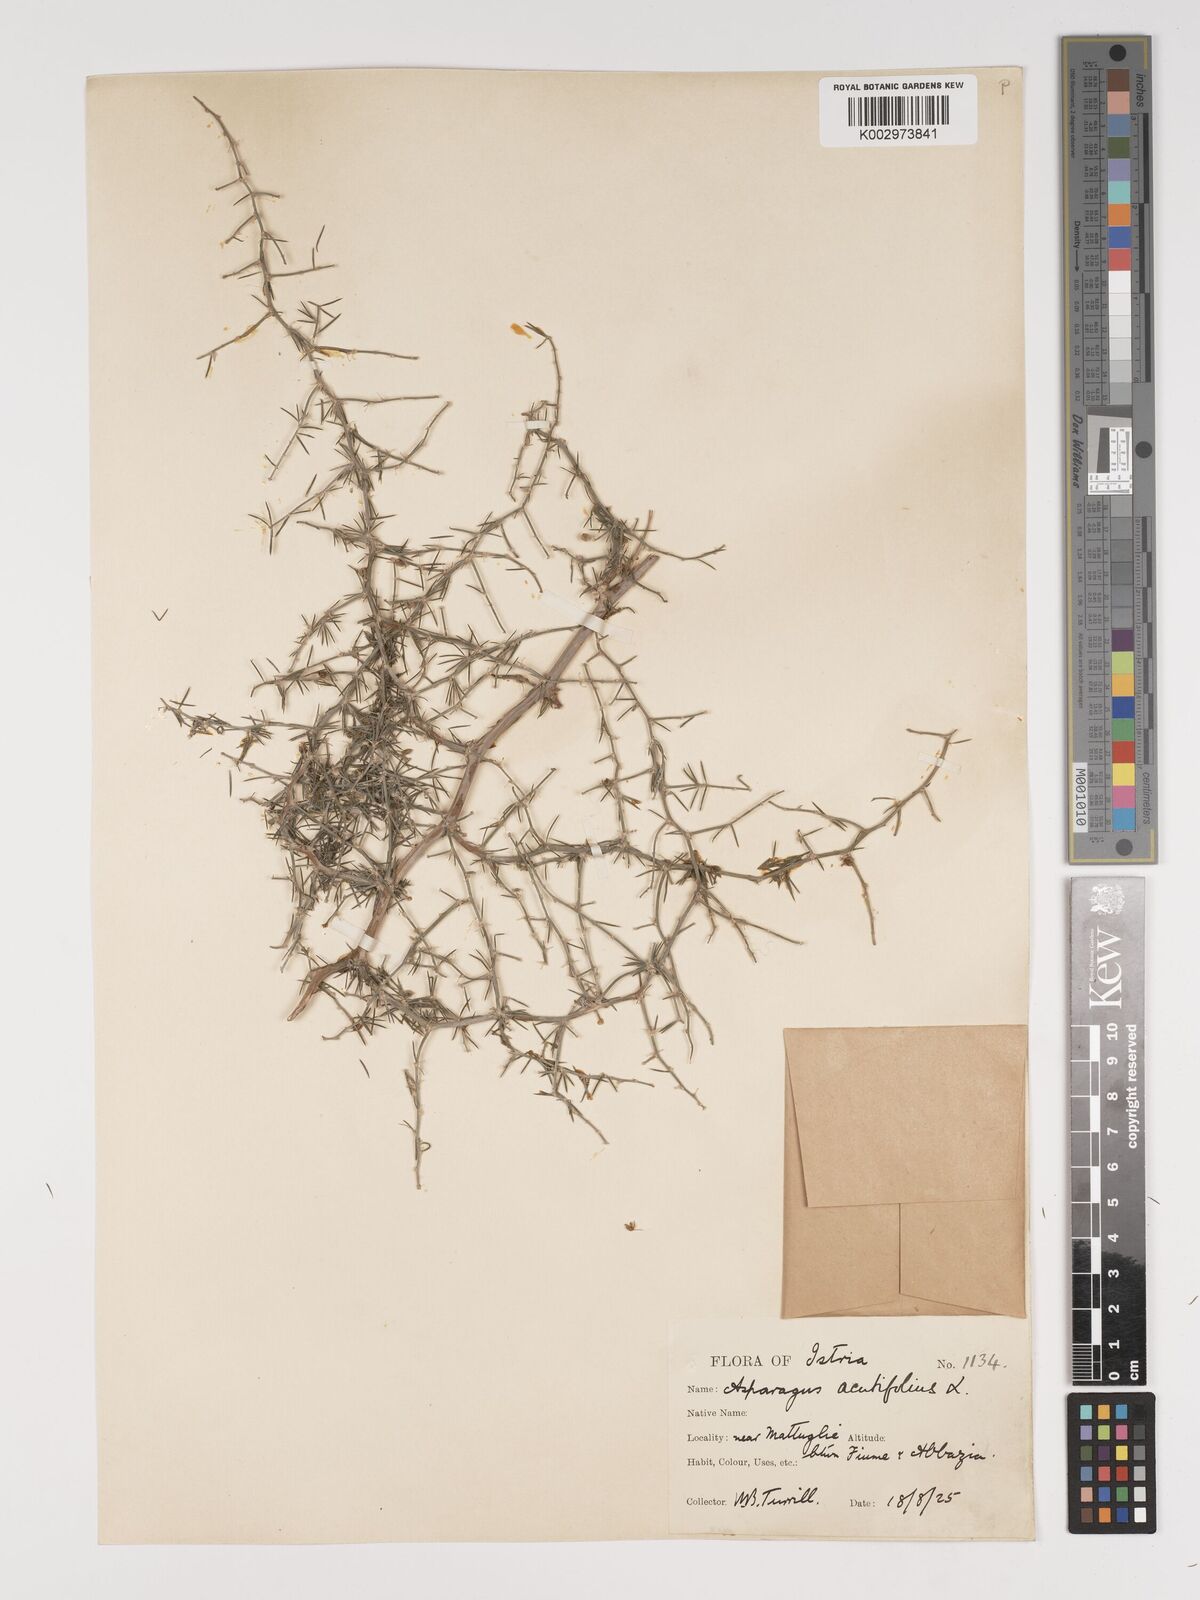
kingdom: Plantae
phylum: Tracheophyta
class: Liliopsida
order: Asparagales
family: Asparagaceae
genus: Asparagus
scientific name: Asparagus acutifolius
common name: Wild asparagus
